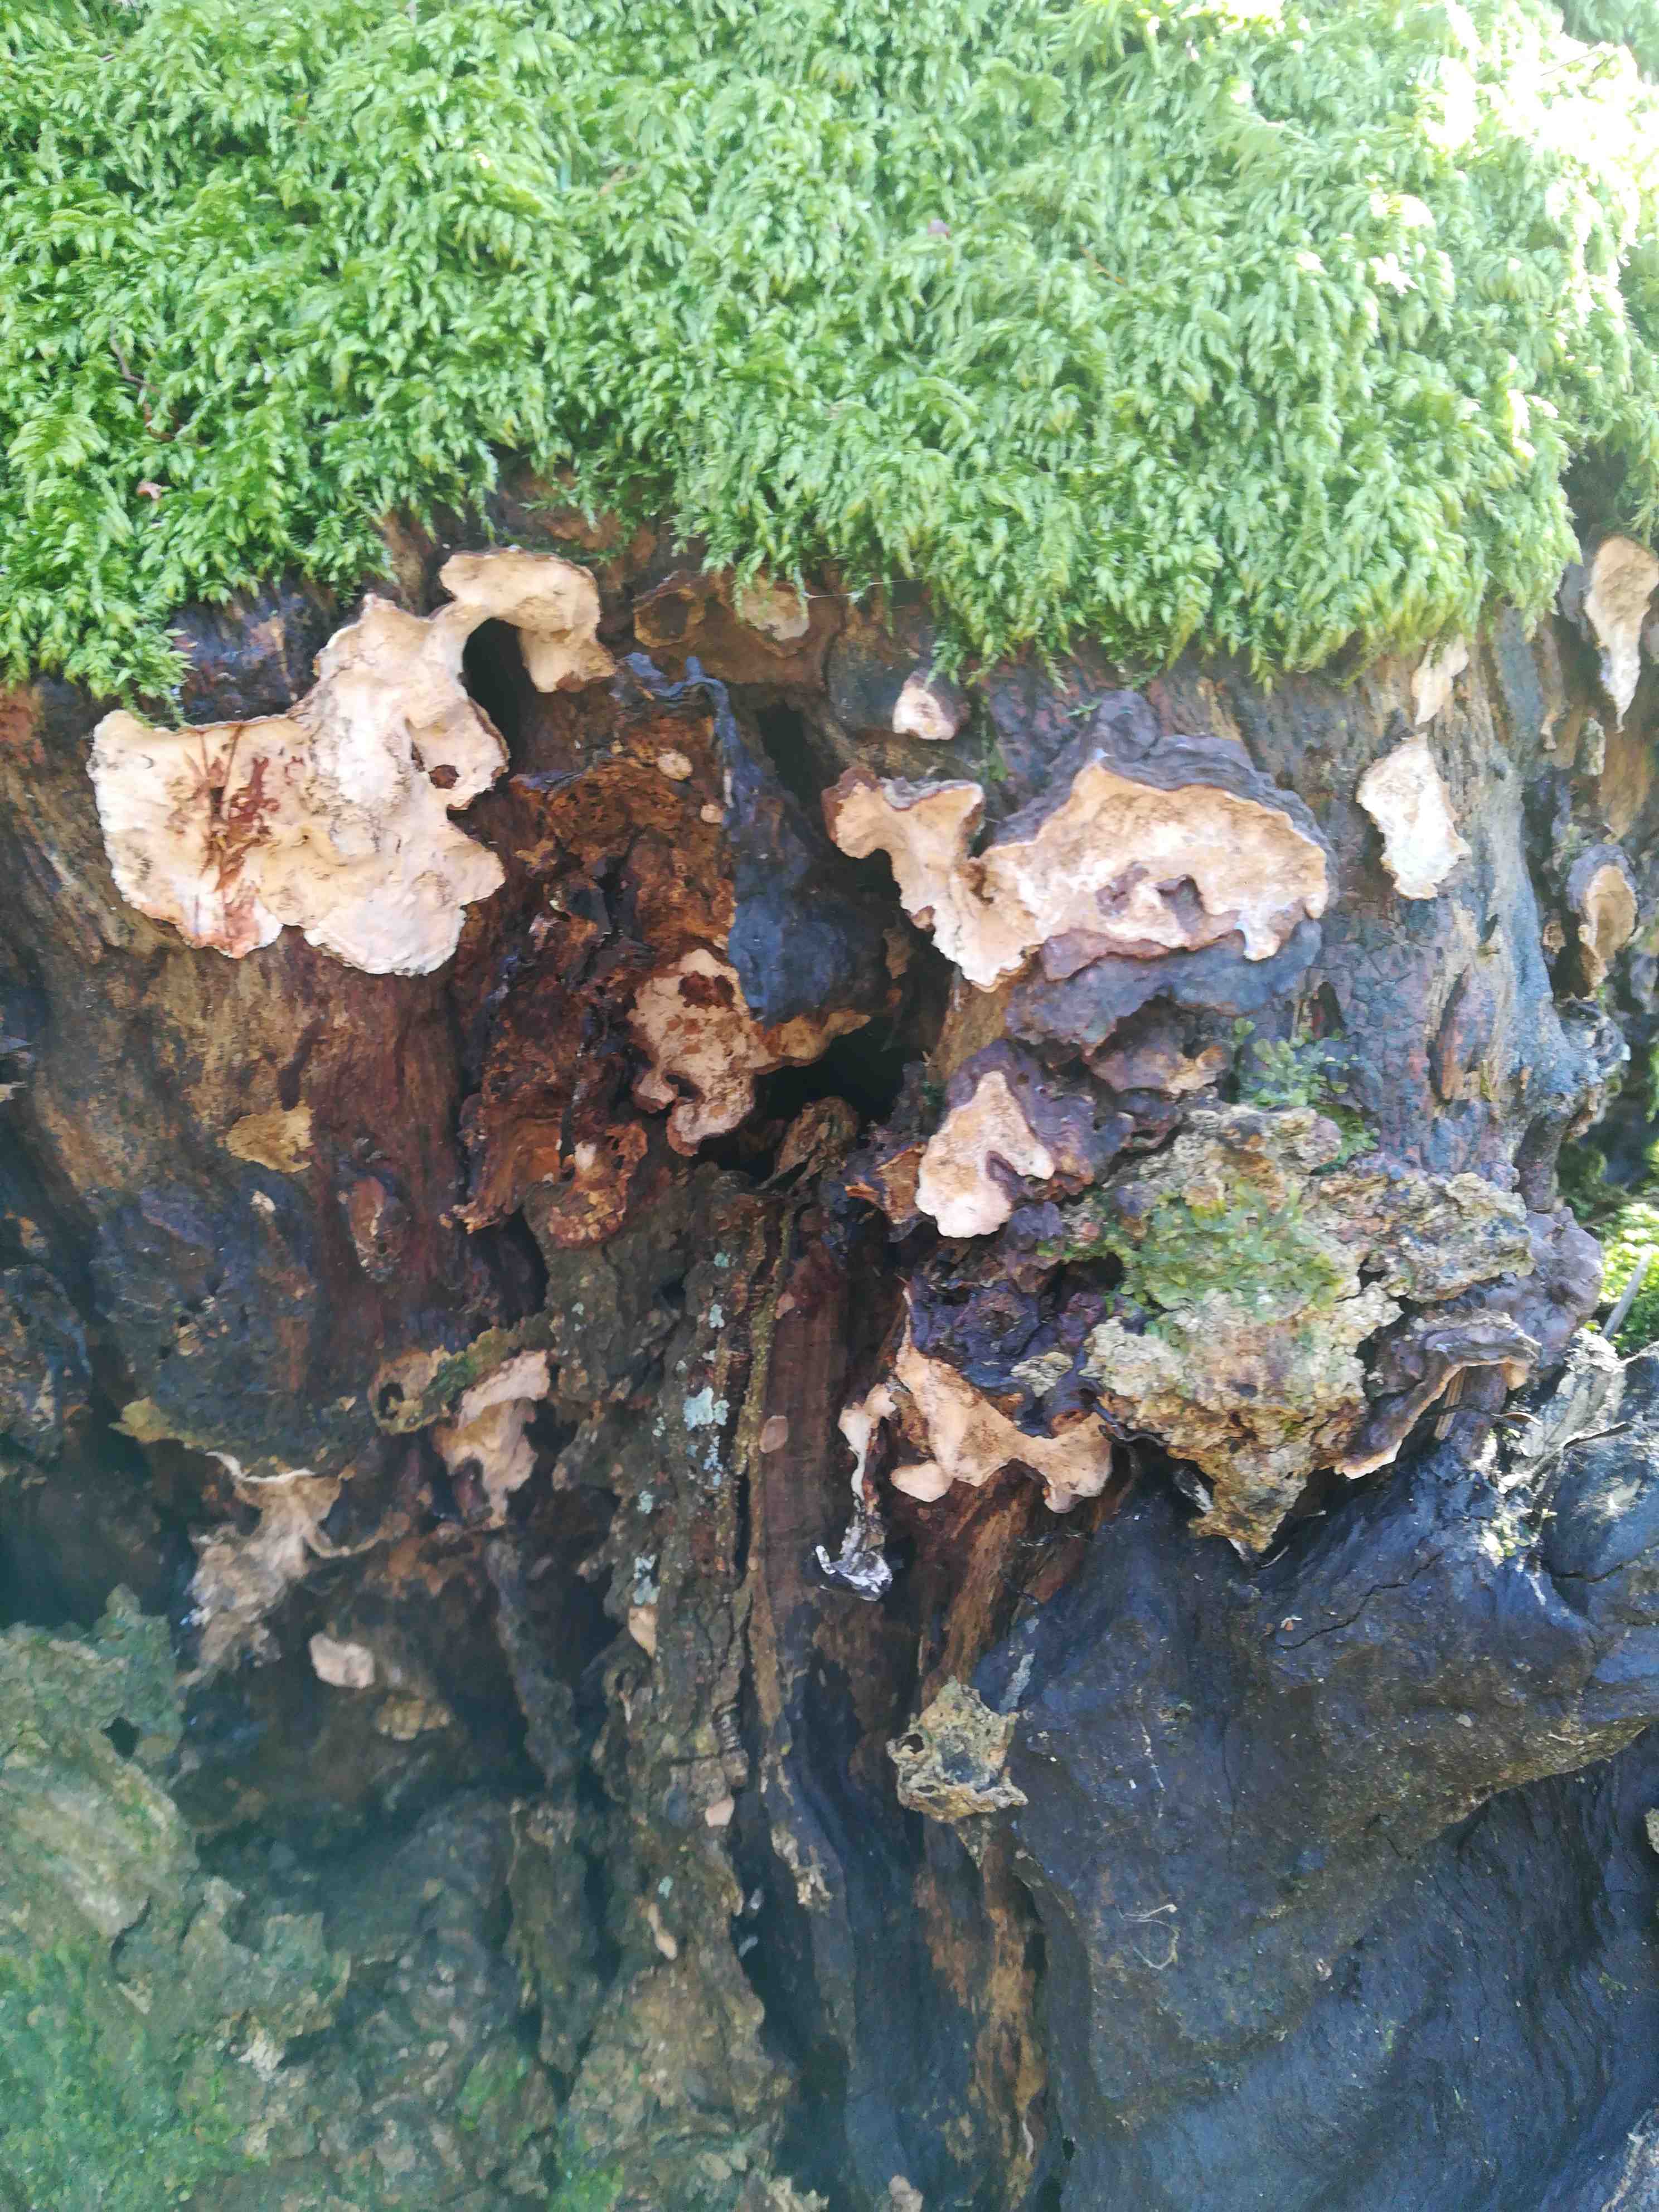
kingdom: Fungi
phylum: Basidiomycota
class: Agaricomycetes
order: Russulales
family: Stereaceae
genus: Stereum
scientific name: Stereum rugosum
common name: rynket lædersvamp
